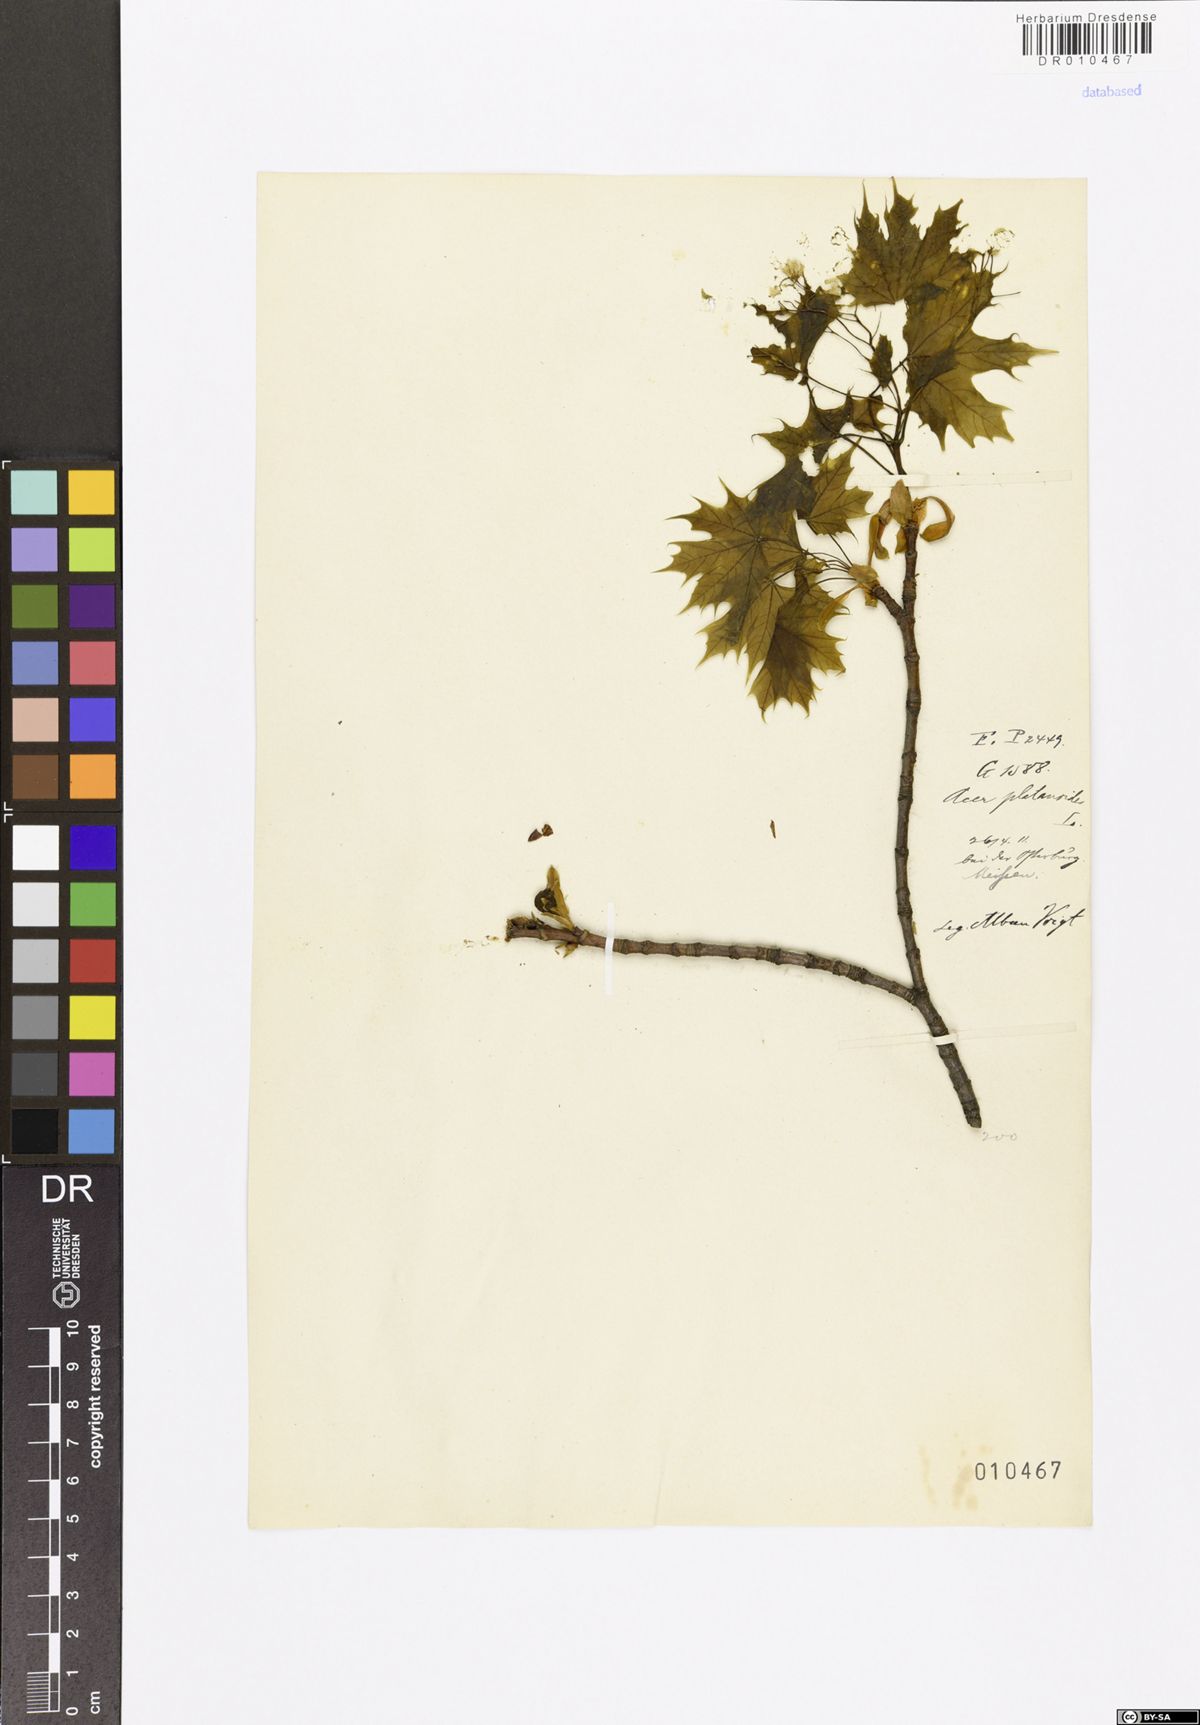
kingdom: Plantae
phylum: Tracheophyta
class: Magnoliopsida
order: Sapindales
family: Sapindaceae
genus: Acer
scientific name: Acer platanoides
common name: Norway maple
